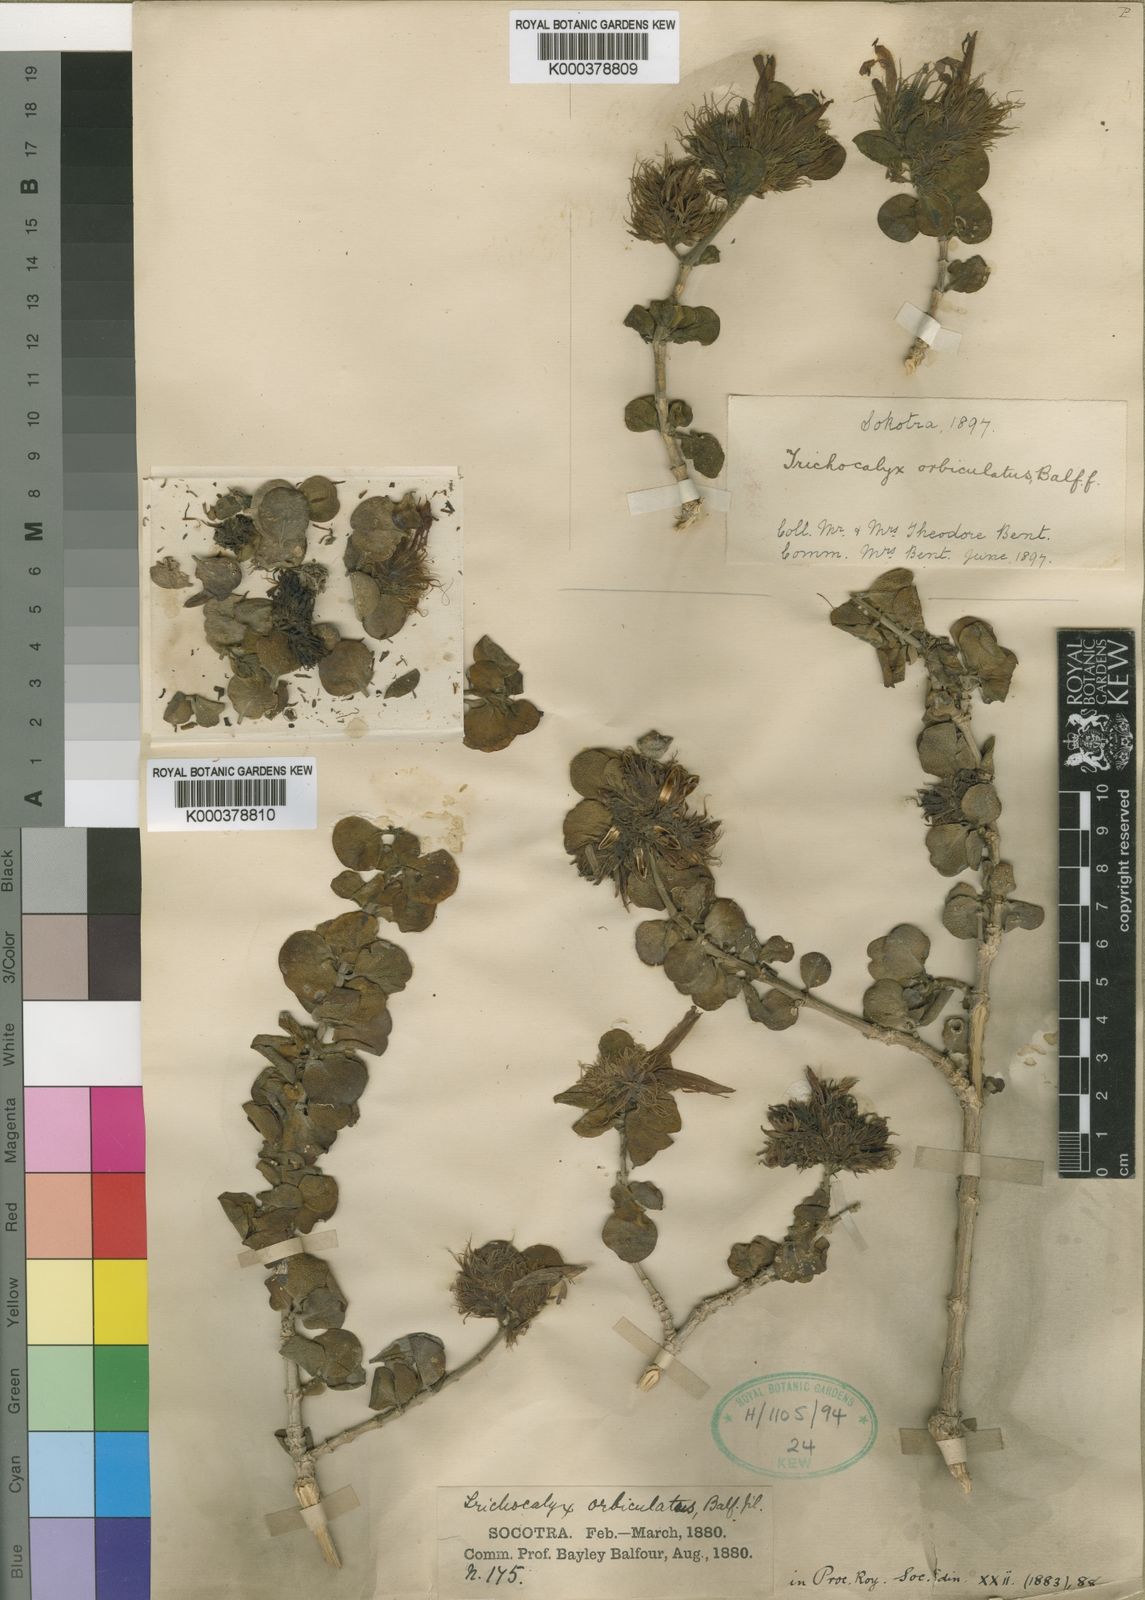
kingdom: Plantae
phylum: Tracheophyta
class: Magnoliopsida
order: Lamiales
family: Acanthaceae
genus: Trichocalyx
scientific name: Trichocalyx orbiculatus
